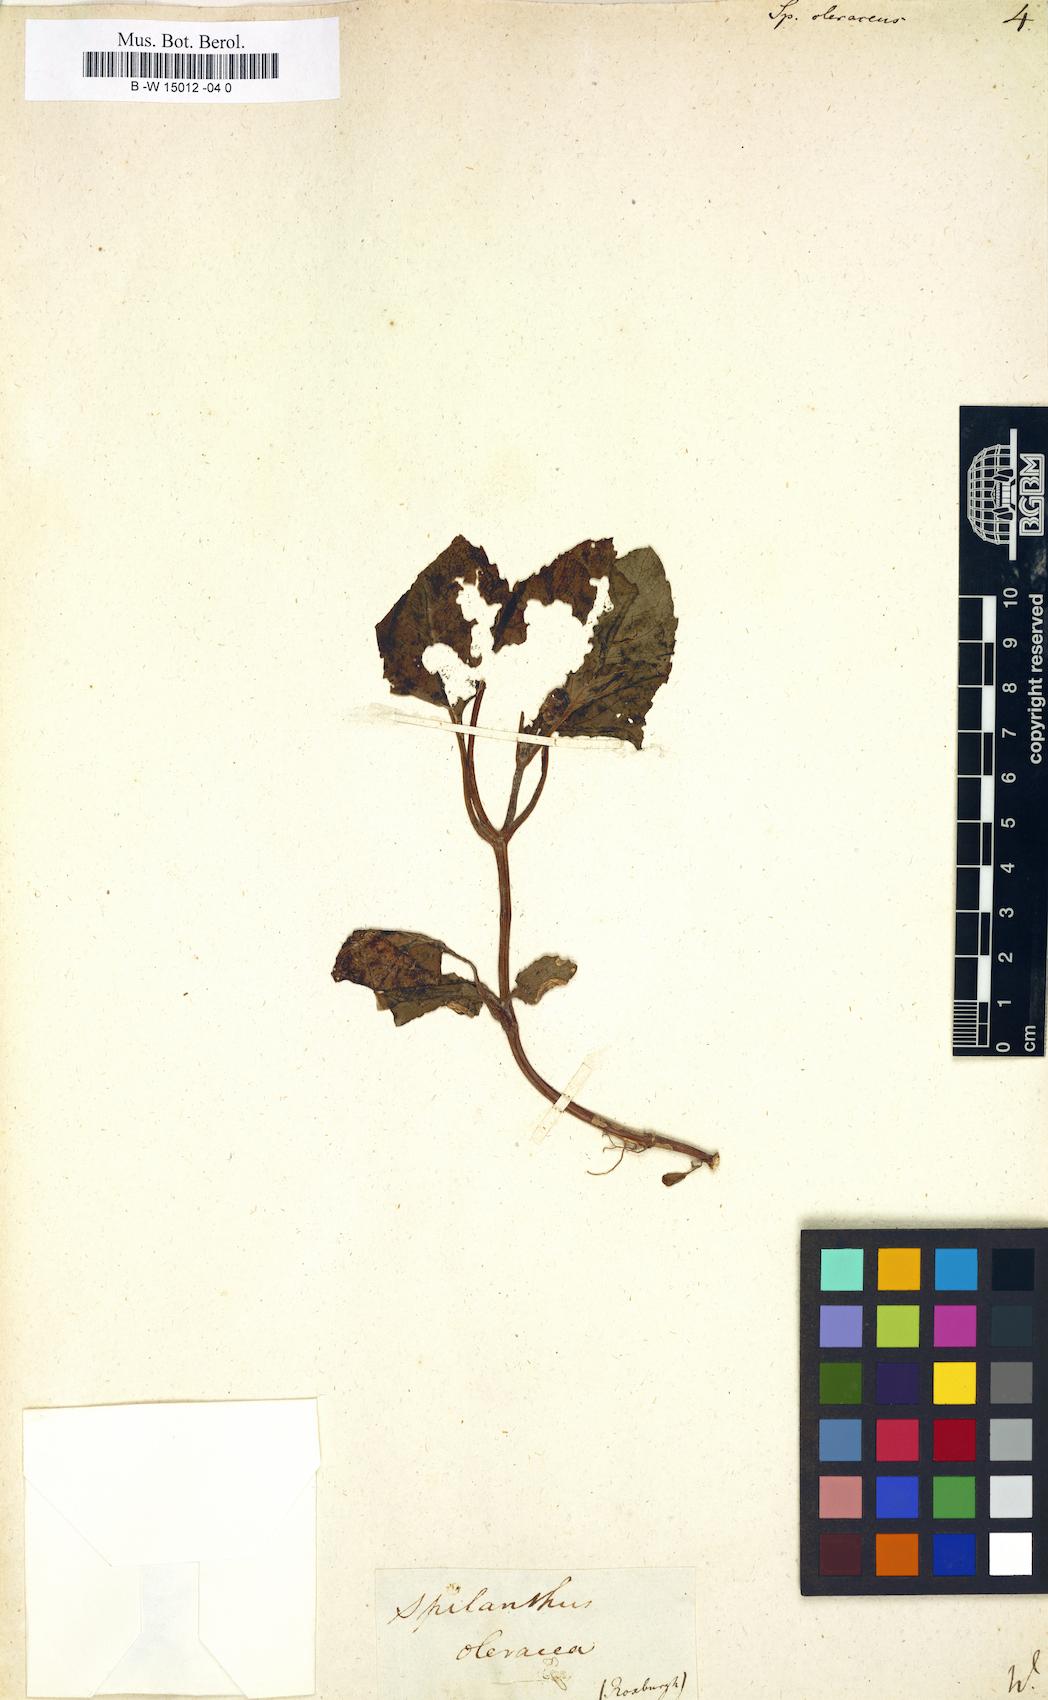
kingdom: Plantae
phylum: Tracheophyta
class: Magnoliopsida
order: Asterales
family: Asteraceae
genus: Acmella
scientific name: Acmella oleracea
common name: Brazilian cress
